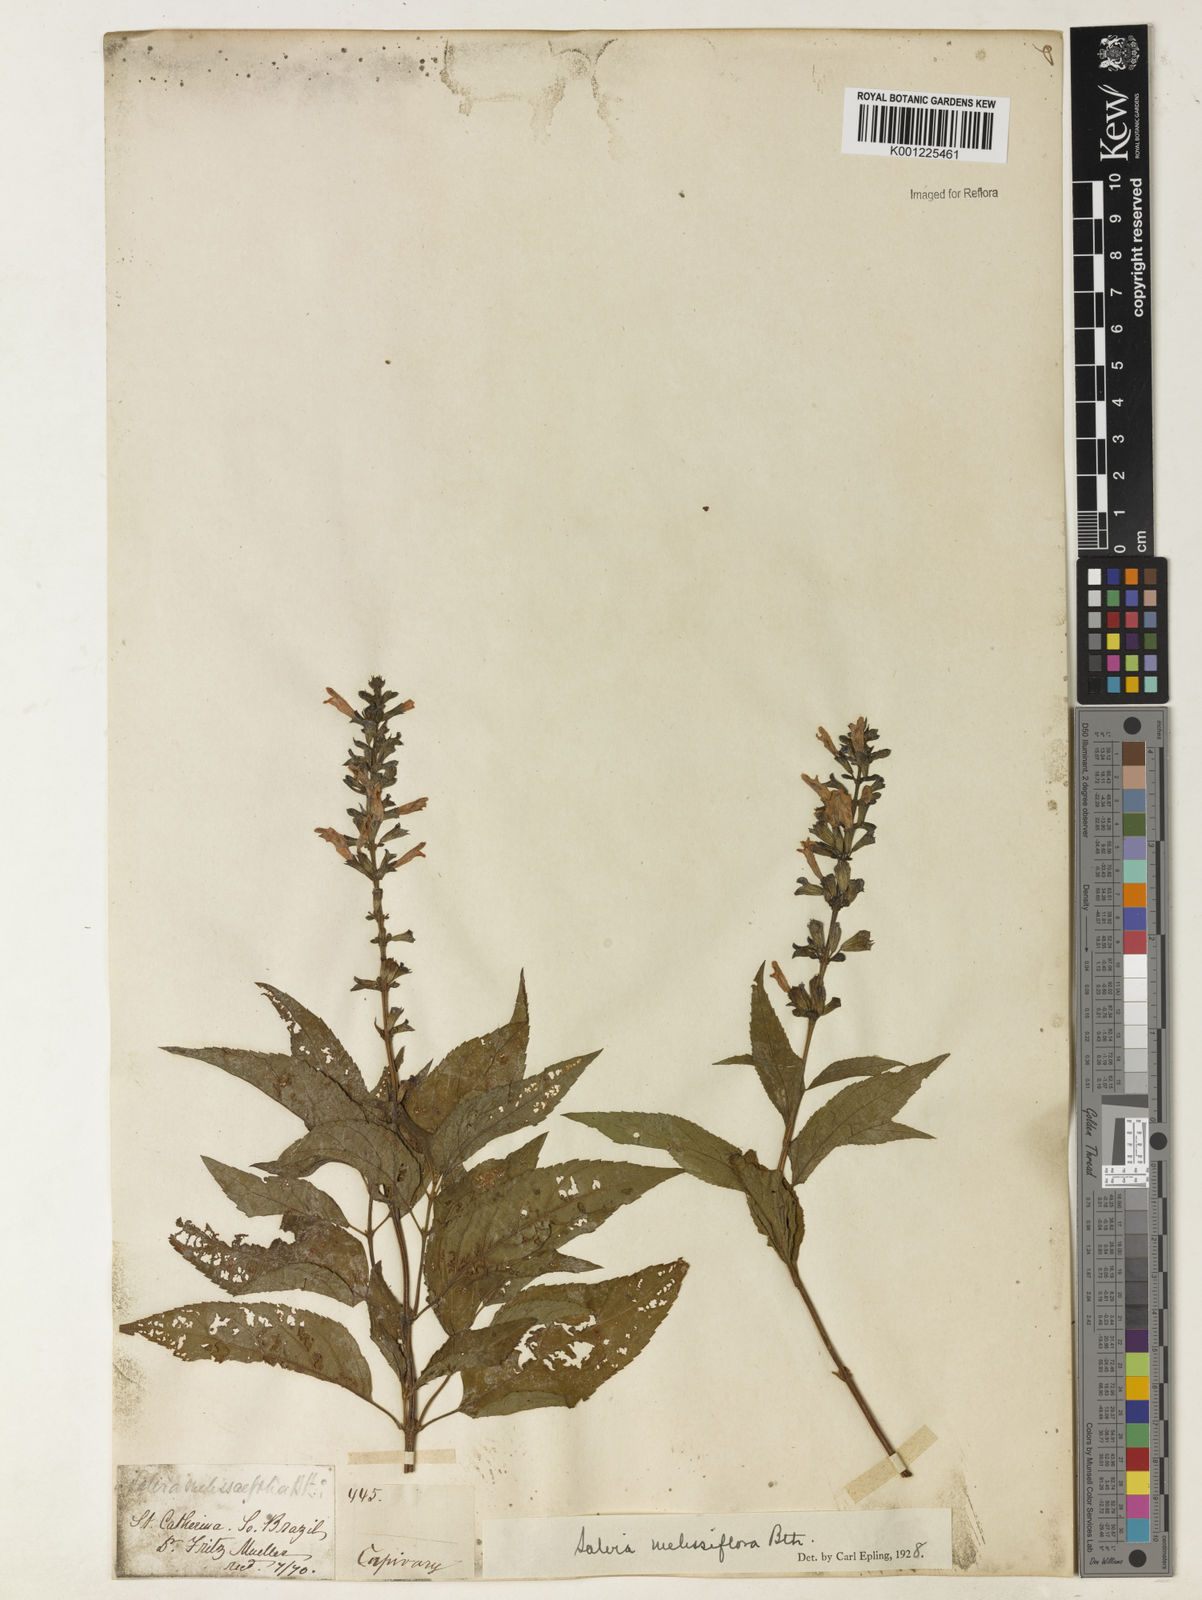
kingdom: Plantae
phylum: Tracheophyta
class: Magnoliopsida
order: Lamiales
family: Lamiaceae
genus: Salvia
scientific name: Salvia melissiflora
